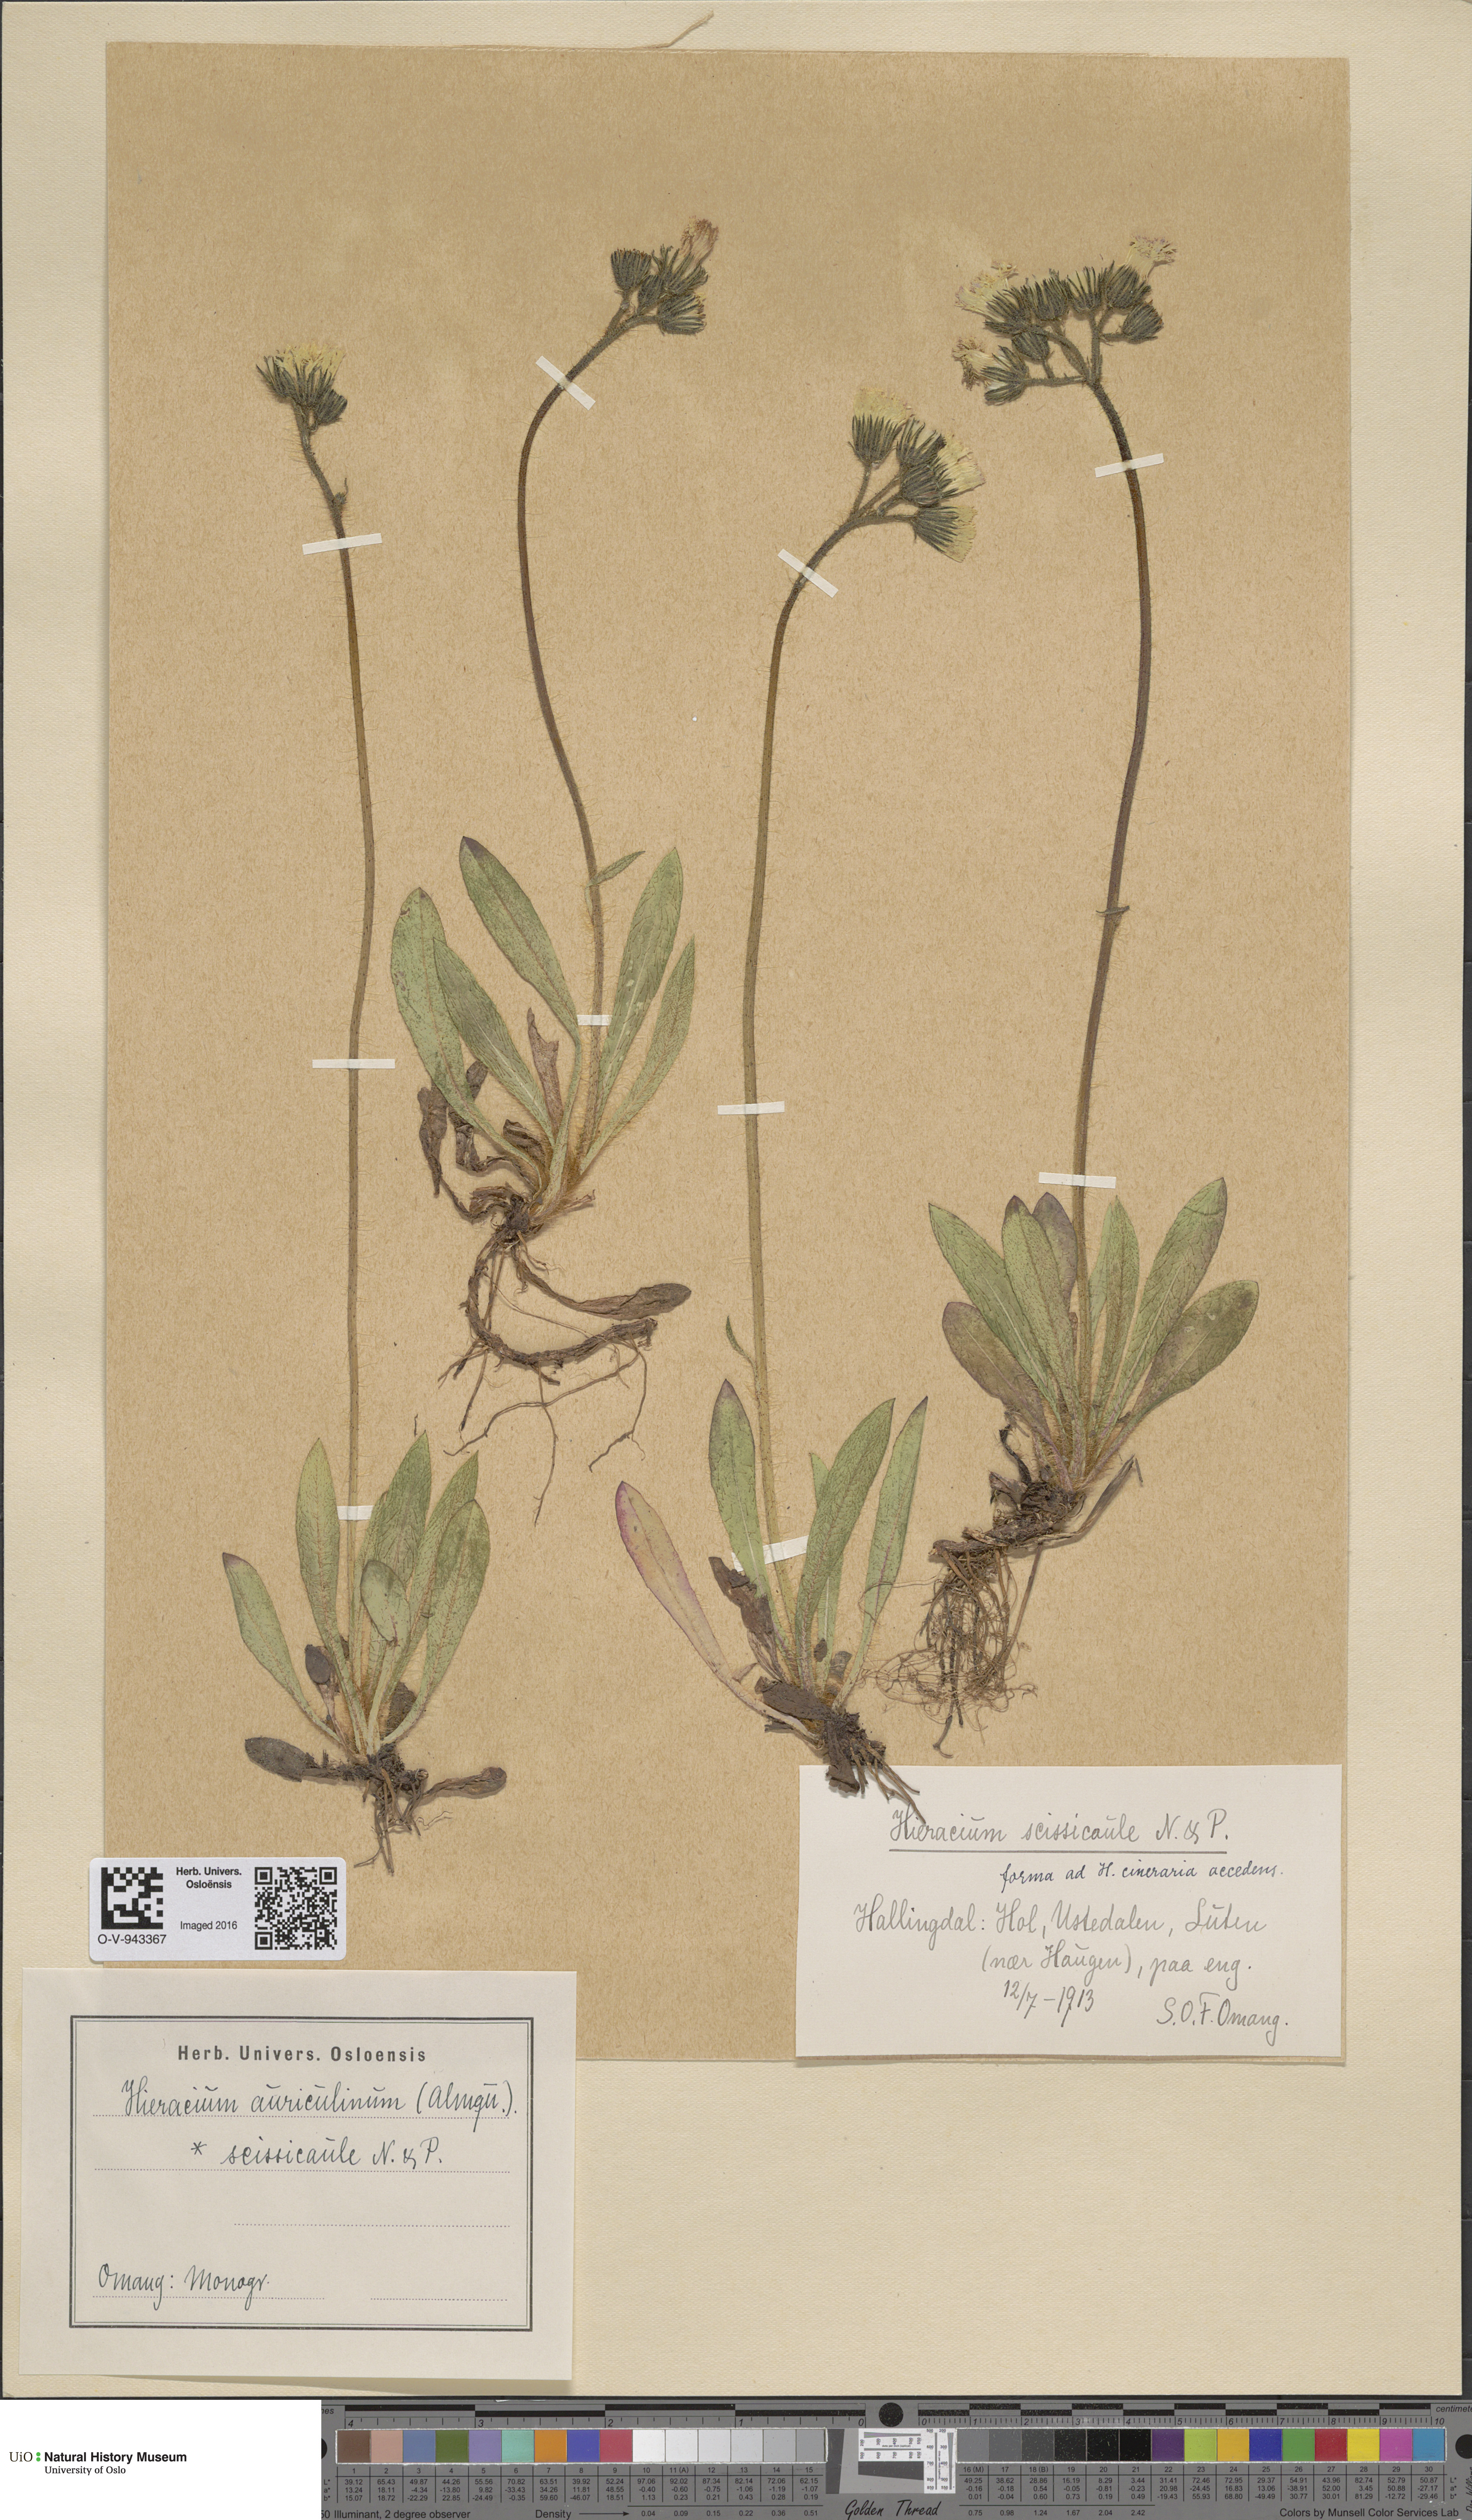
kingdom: Plantae
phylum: Tracheophyta
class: Magnoliopsida
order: Asterales
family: Asteraceae
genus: Pilosella
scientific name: Pilosella dubia
